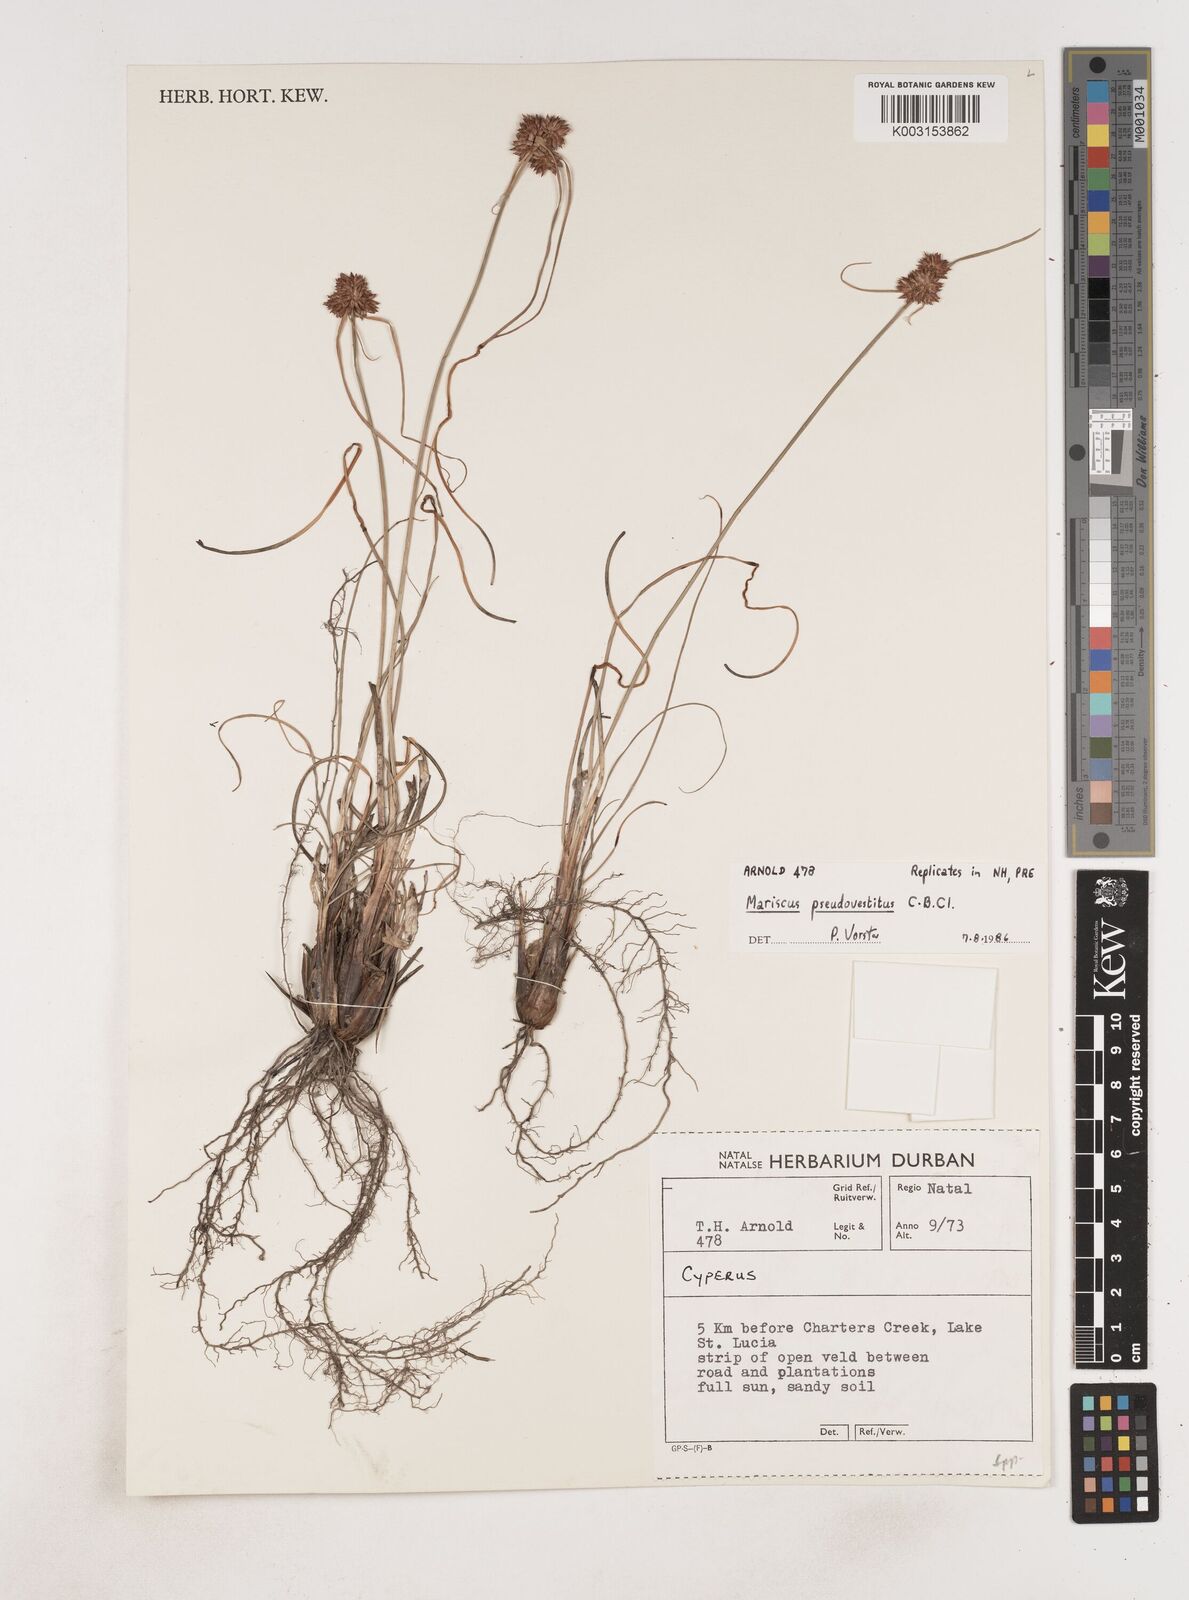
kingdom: Plantae
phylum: Tracheophyta
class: Liliopsida
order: Poales
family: Cyperaceae
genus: Cyperus
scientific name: Cyperus
